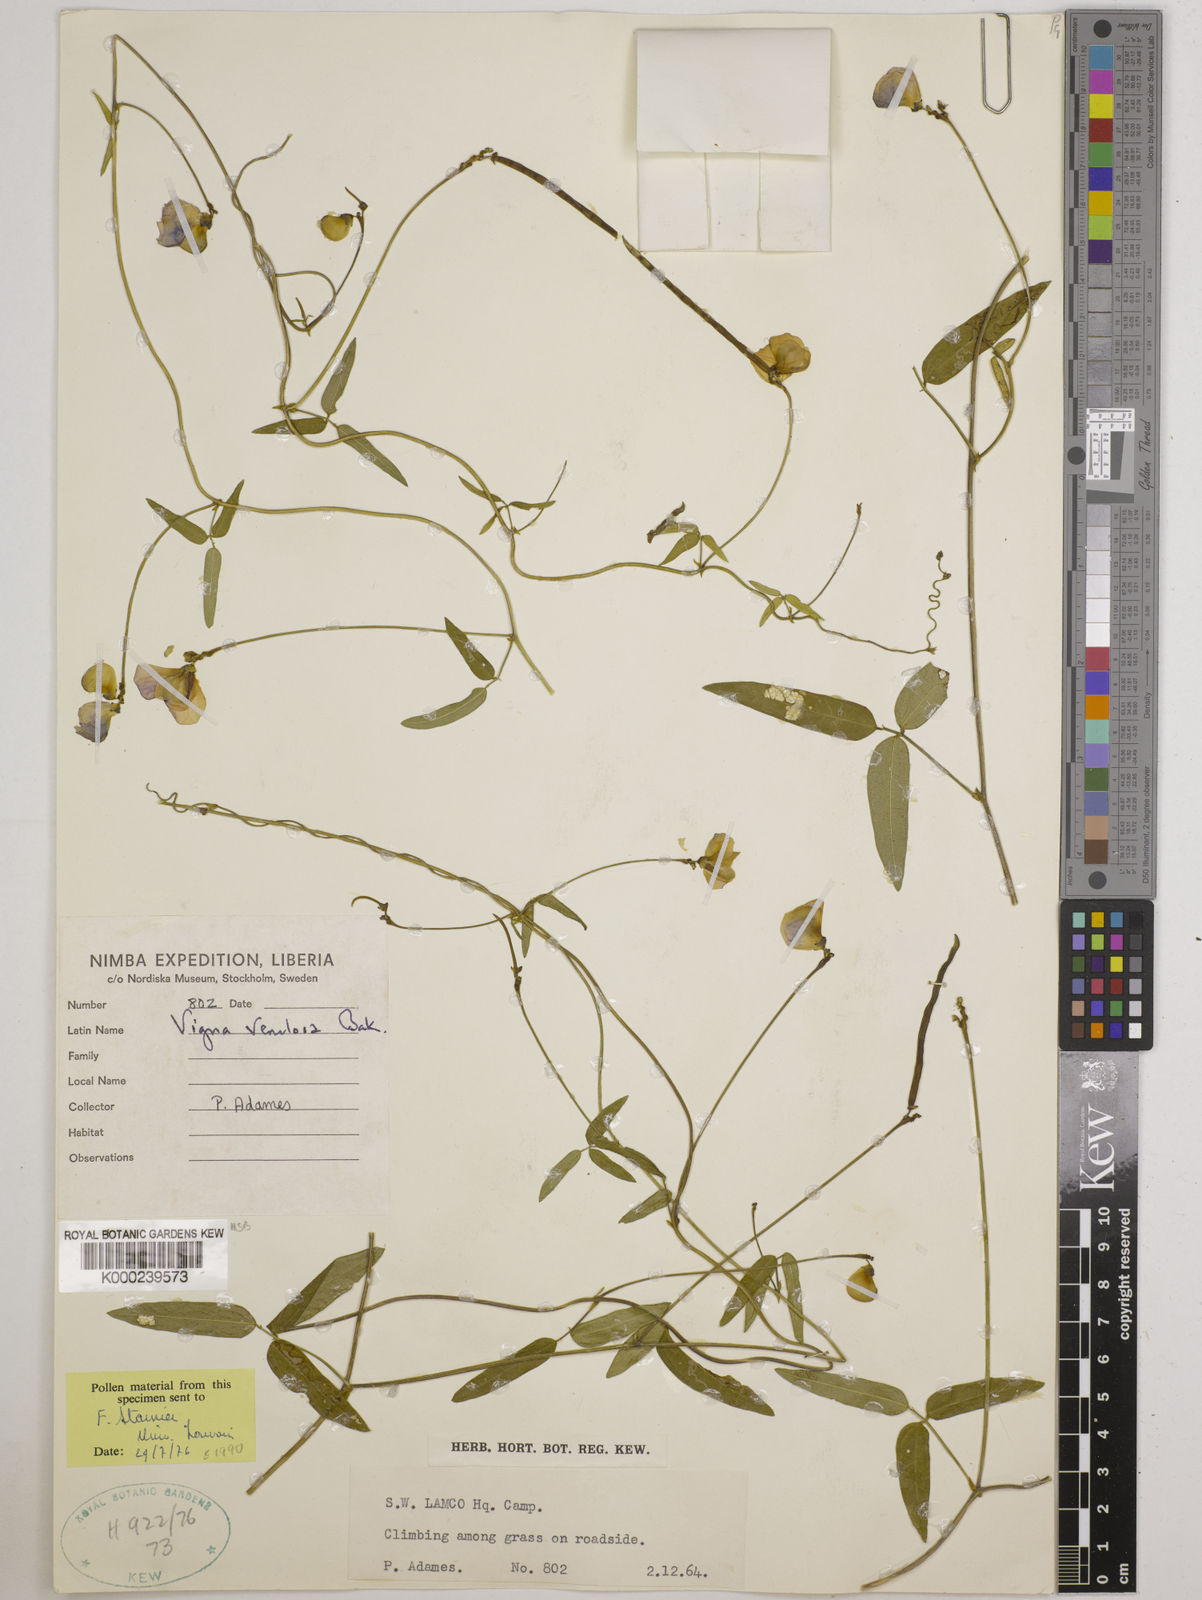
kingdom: Plantae
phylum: Tracheophyta
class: Magnoliopsida
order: Fabales
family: Fabaceae
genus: Vigna
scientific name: Vigna venulosa
